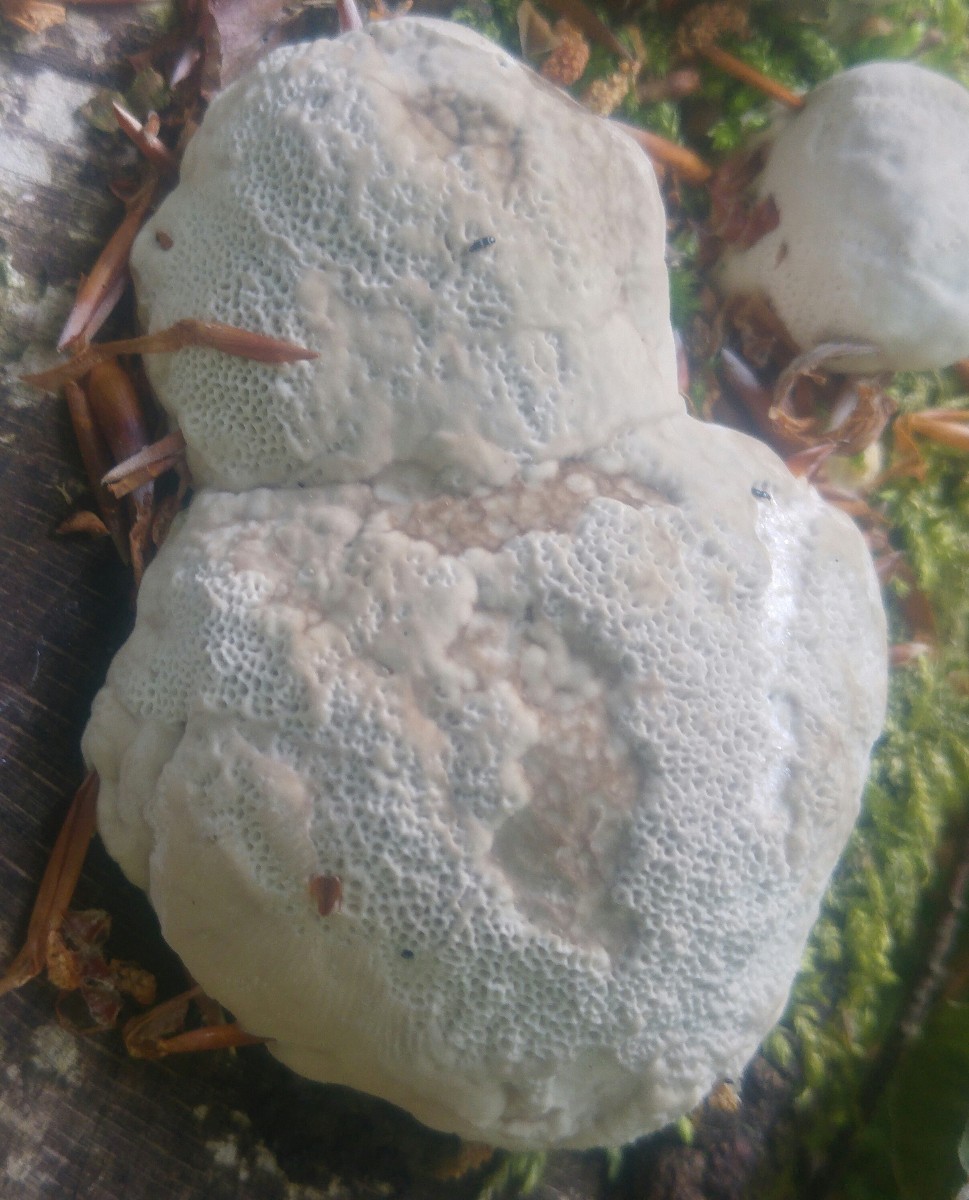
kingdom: Fungi
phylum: Basidiomycota
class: Agaricomycetes
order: Polyporales
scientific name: Polyporales
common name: poresvampordenen
